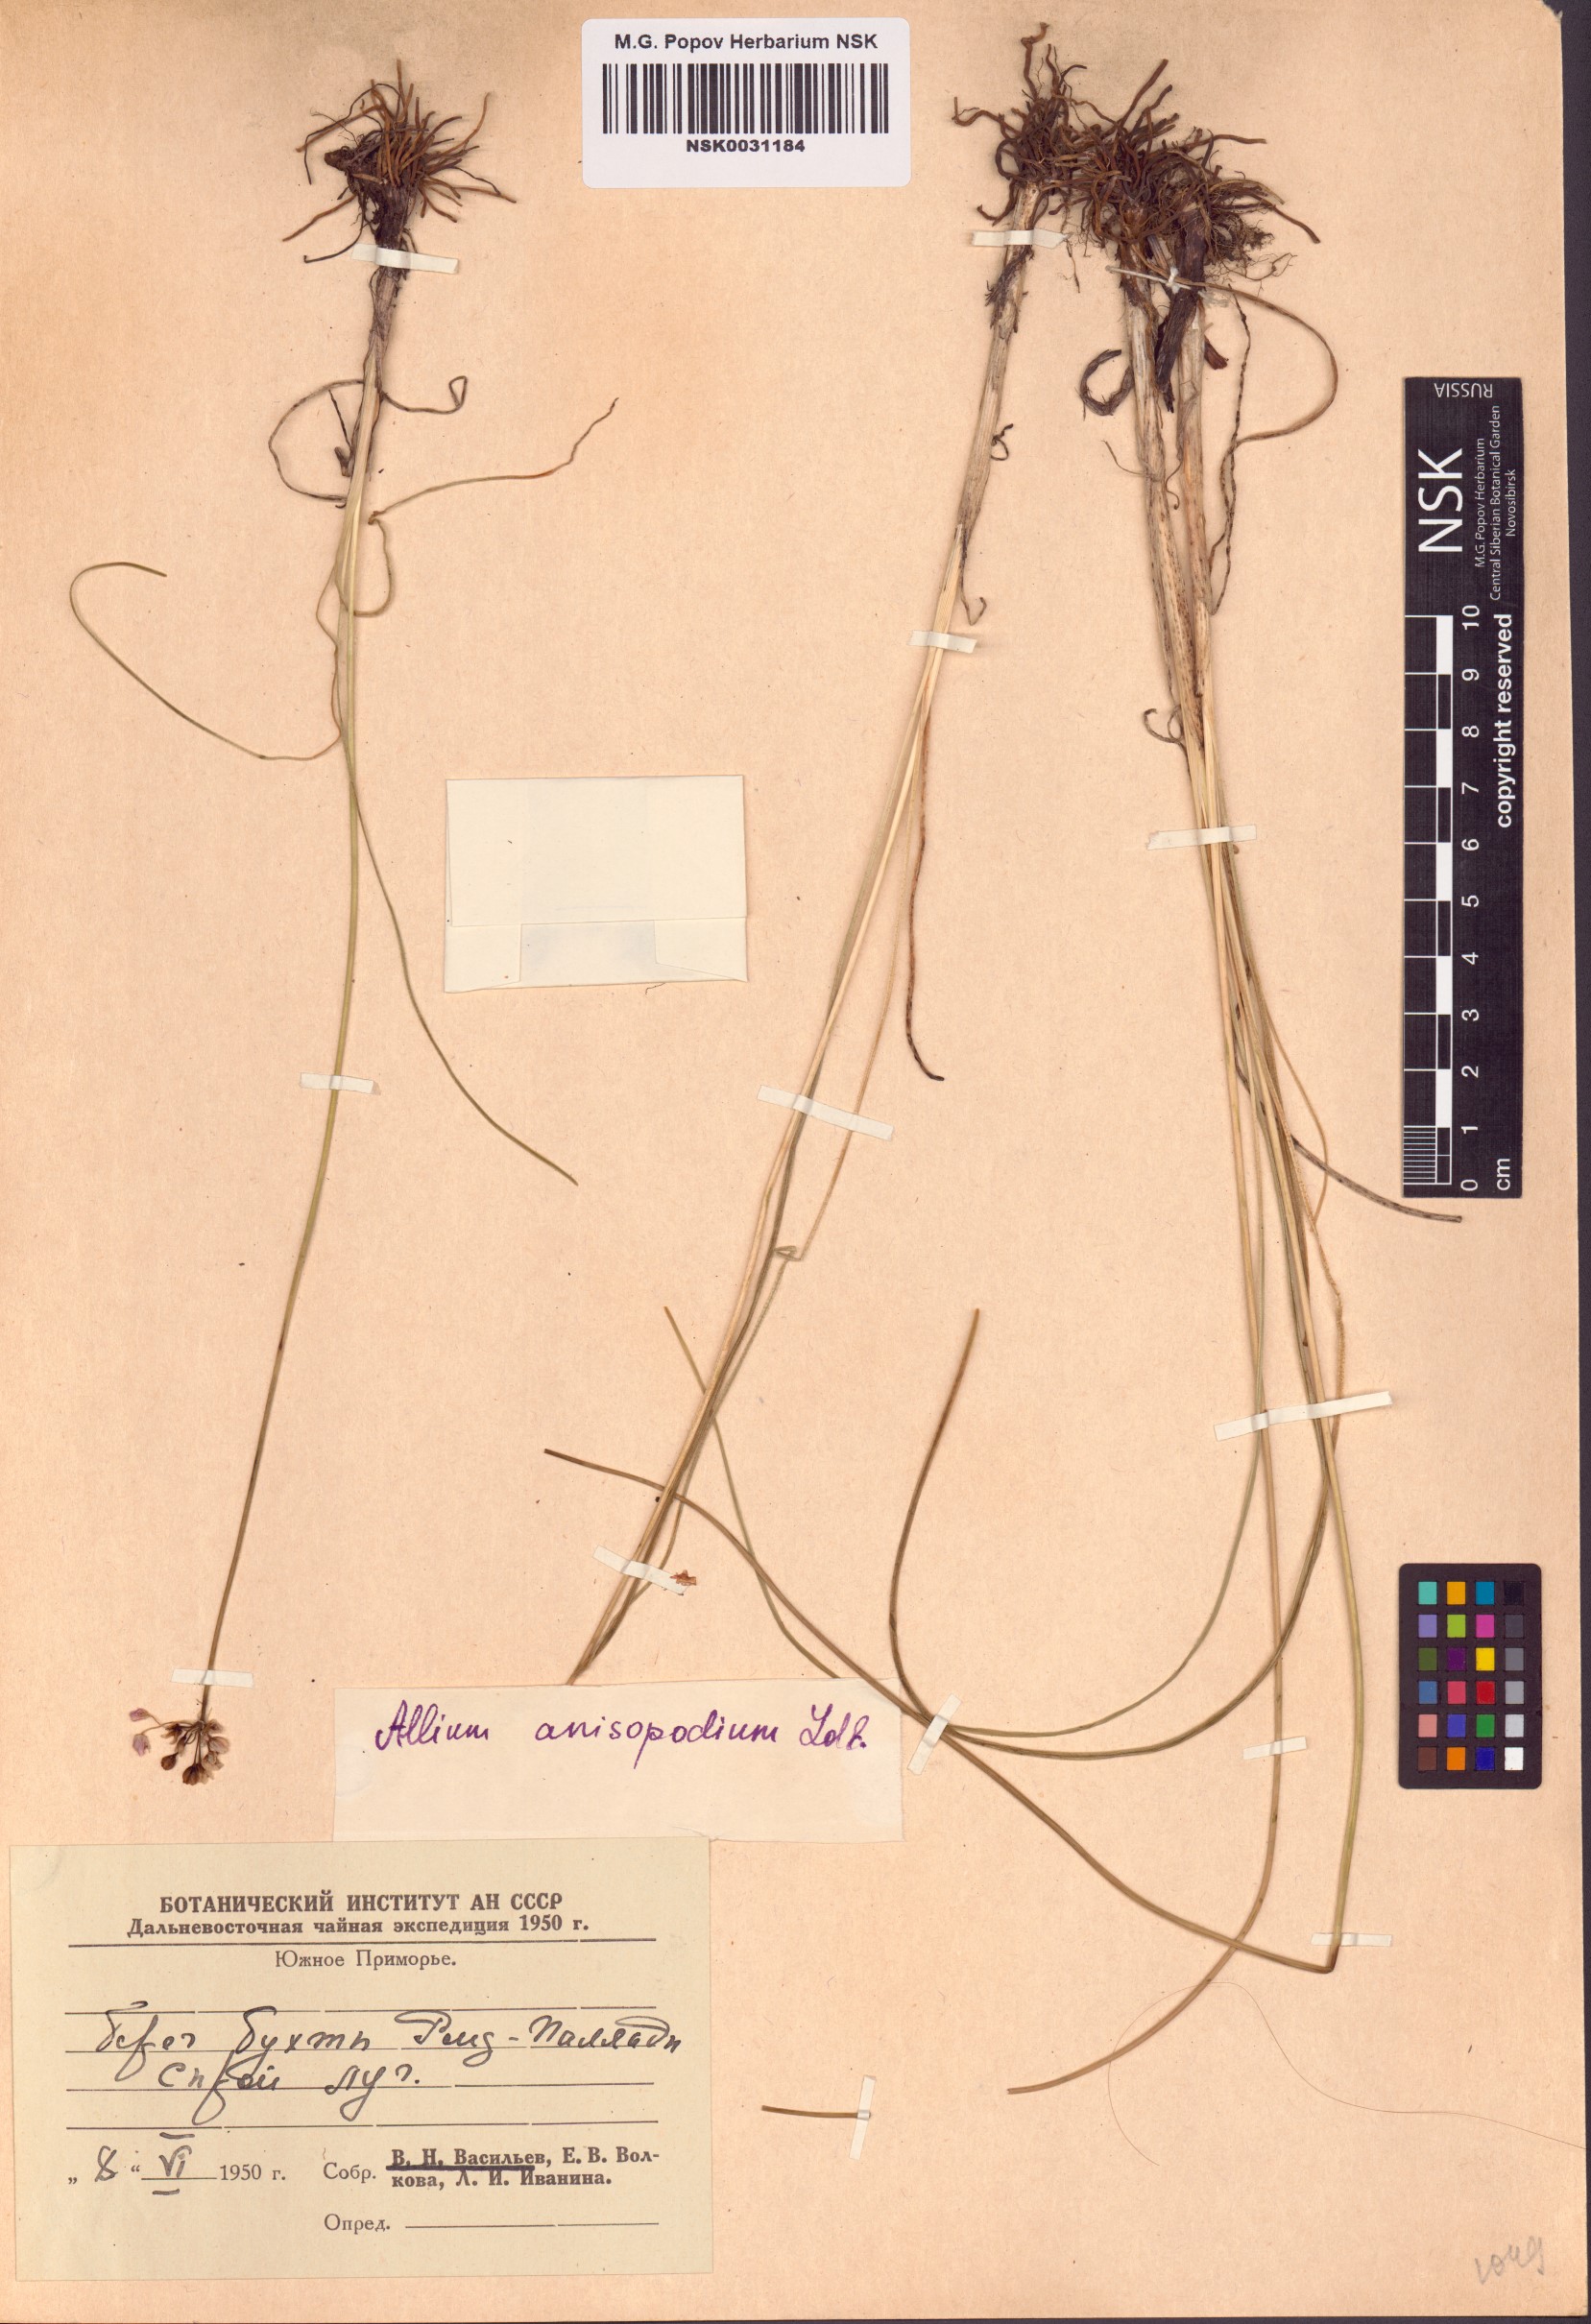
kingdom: Plantae
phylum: Tracheophyta
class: Liliopsida
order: Asparagales
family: Amaryllidaceae
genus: Allium
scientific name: Allium anisopodium
